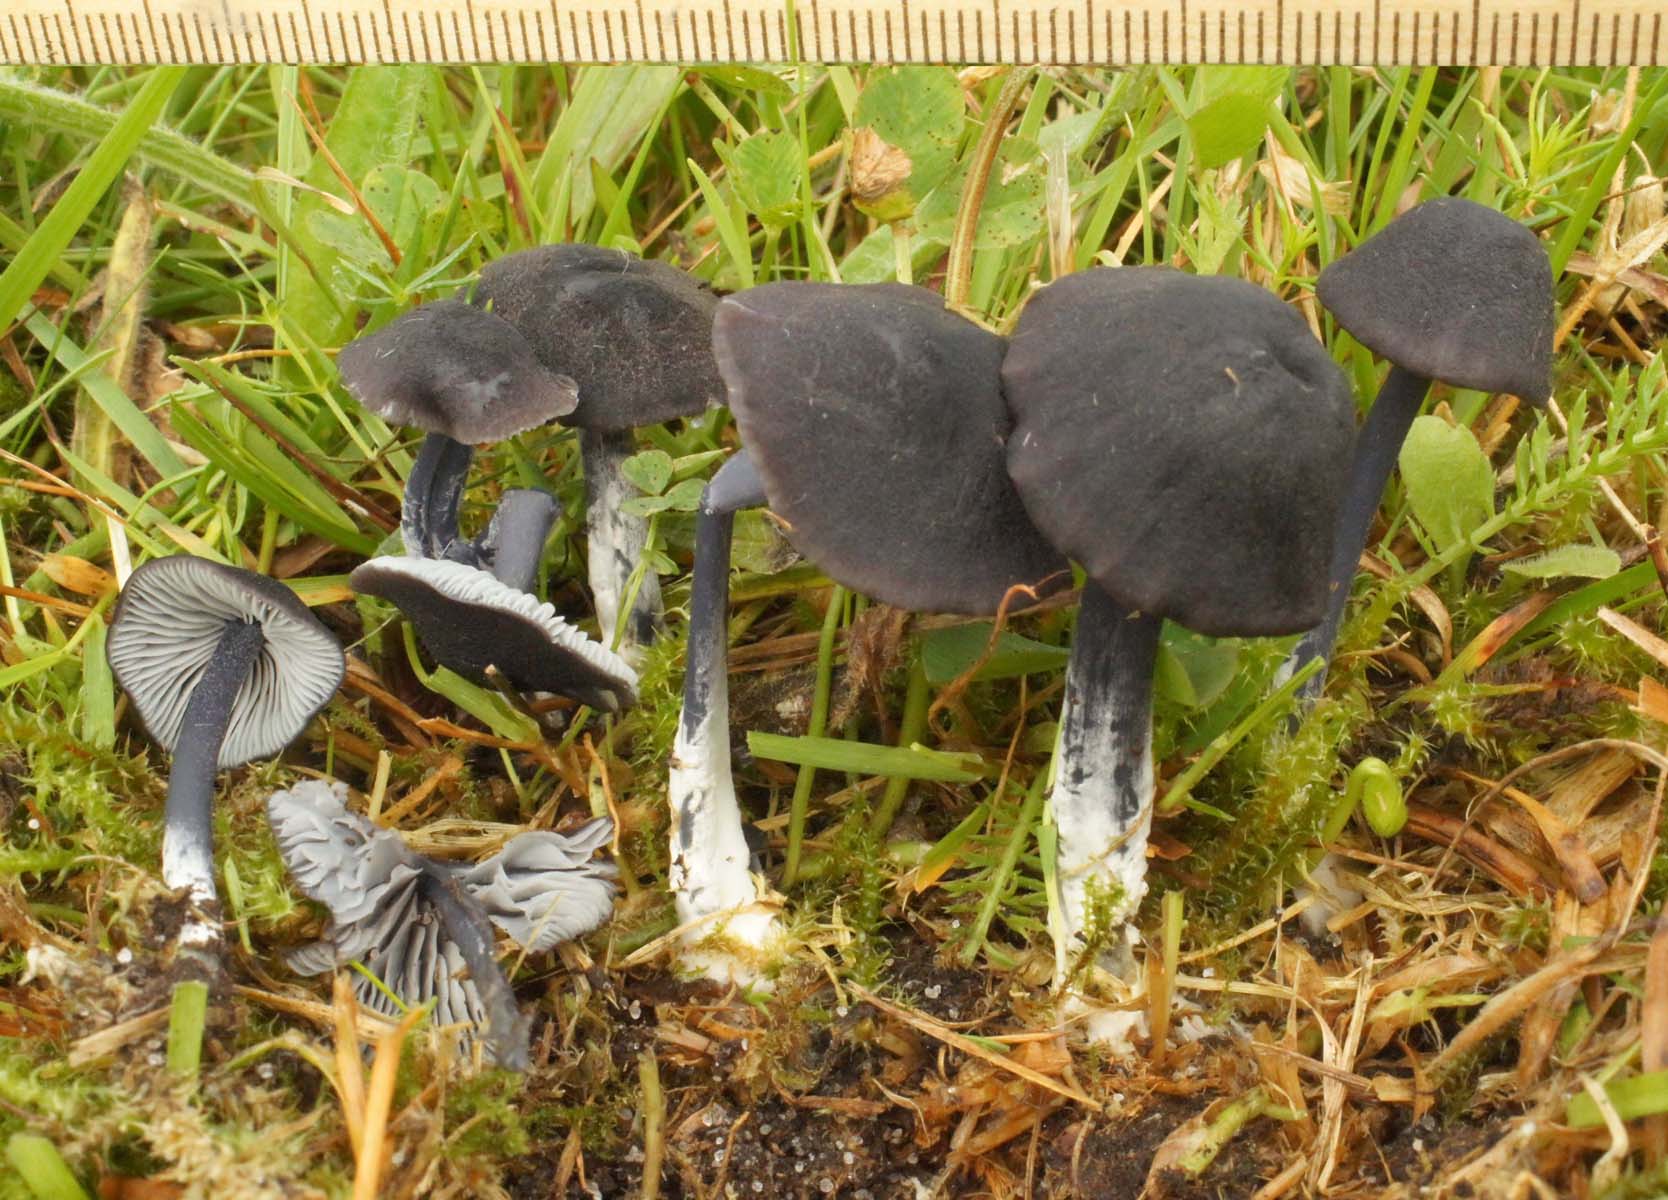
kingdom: Fungi
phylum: Basidiomycota
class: Agaricomycetes
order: Agaricales
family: Entolomataceae
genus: Entoloma
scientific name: Entoloma chalybeum
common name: blåbladet rødblad
